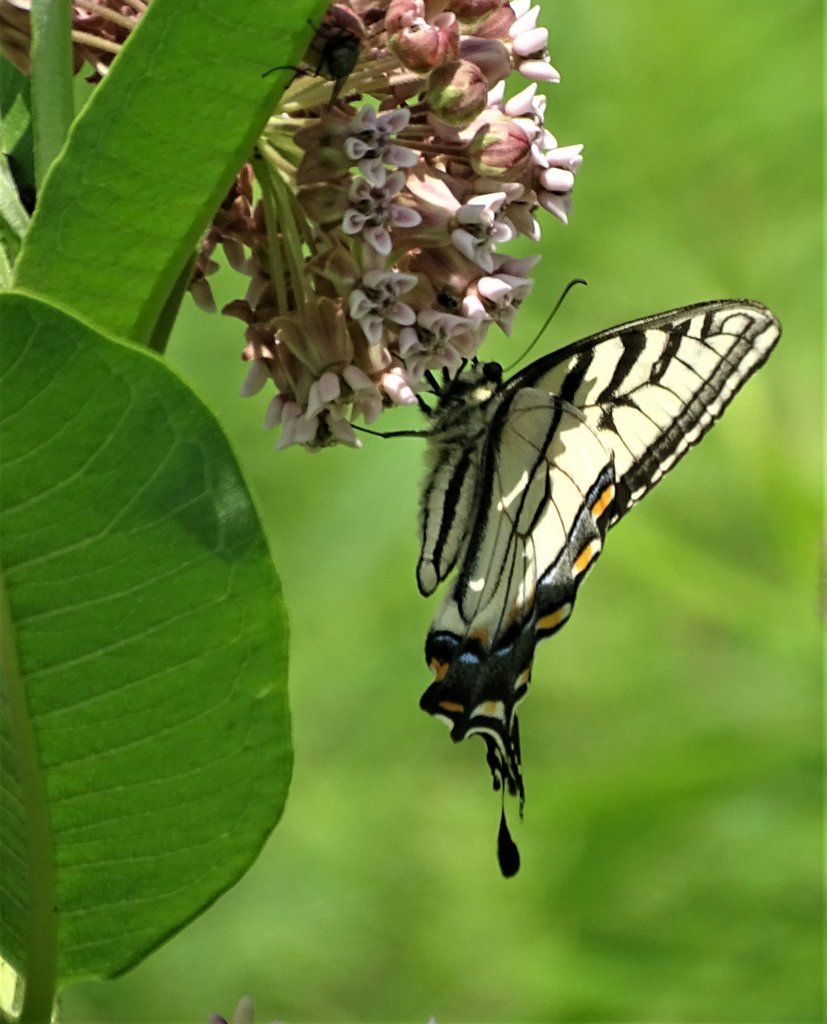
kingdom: Animalia
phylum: Arthropoda
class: Insecta
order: Lepidoptera
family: Papilionidae
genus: Pterourus
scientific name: Pterourus
